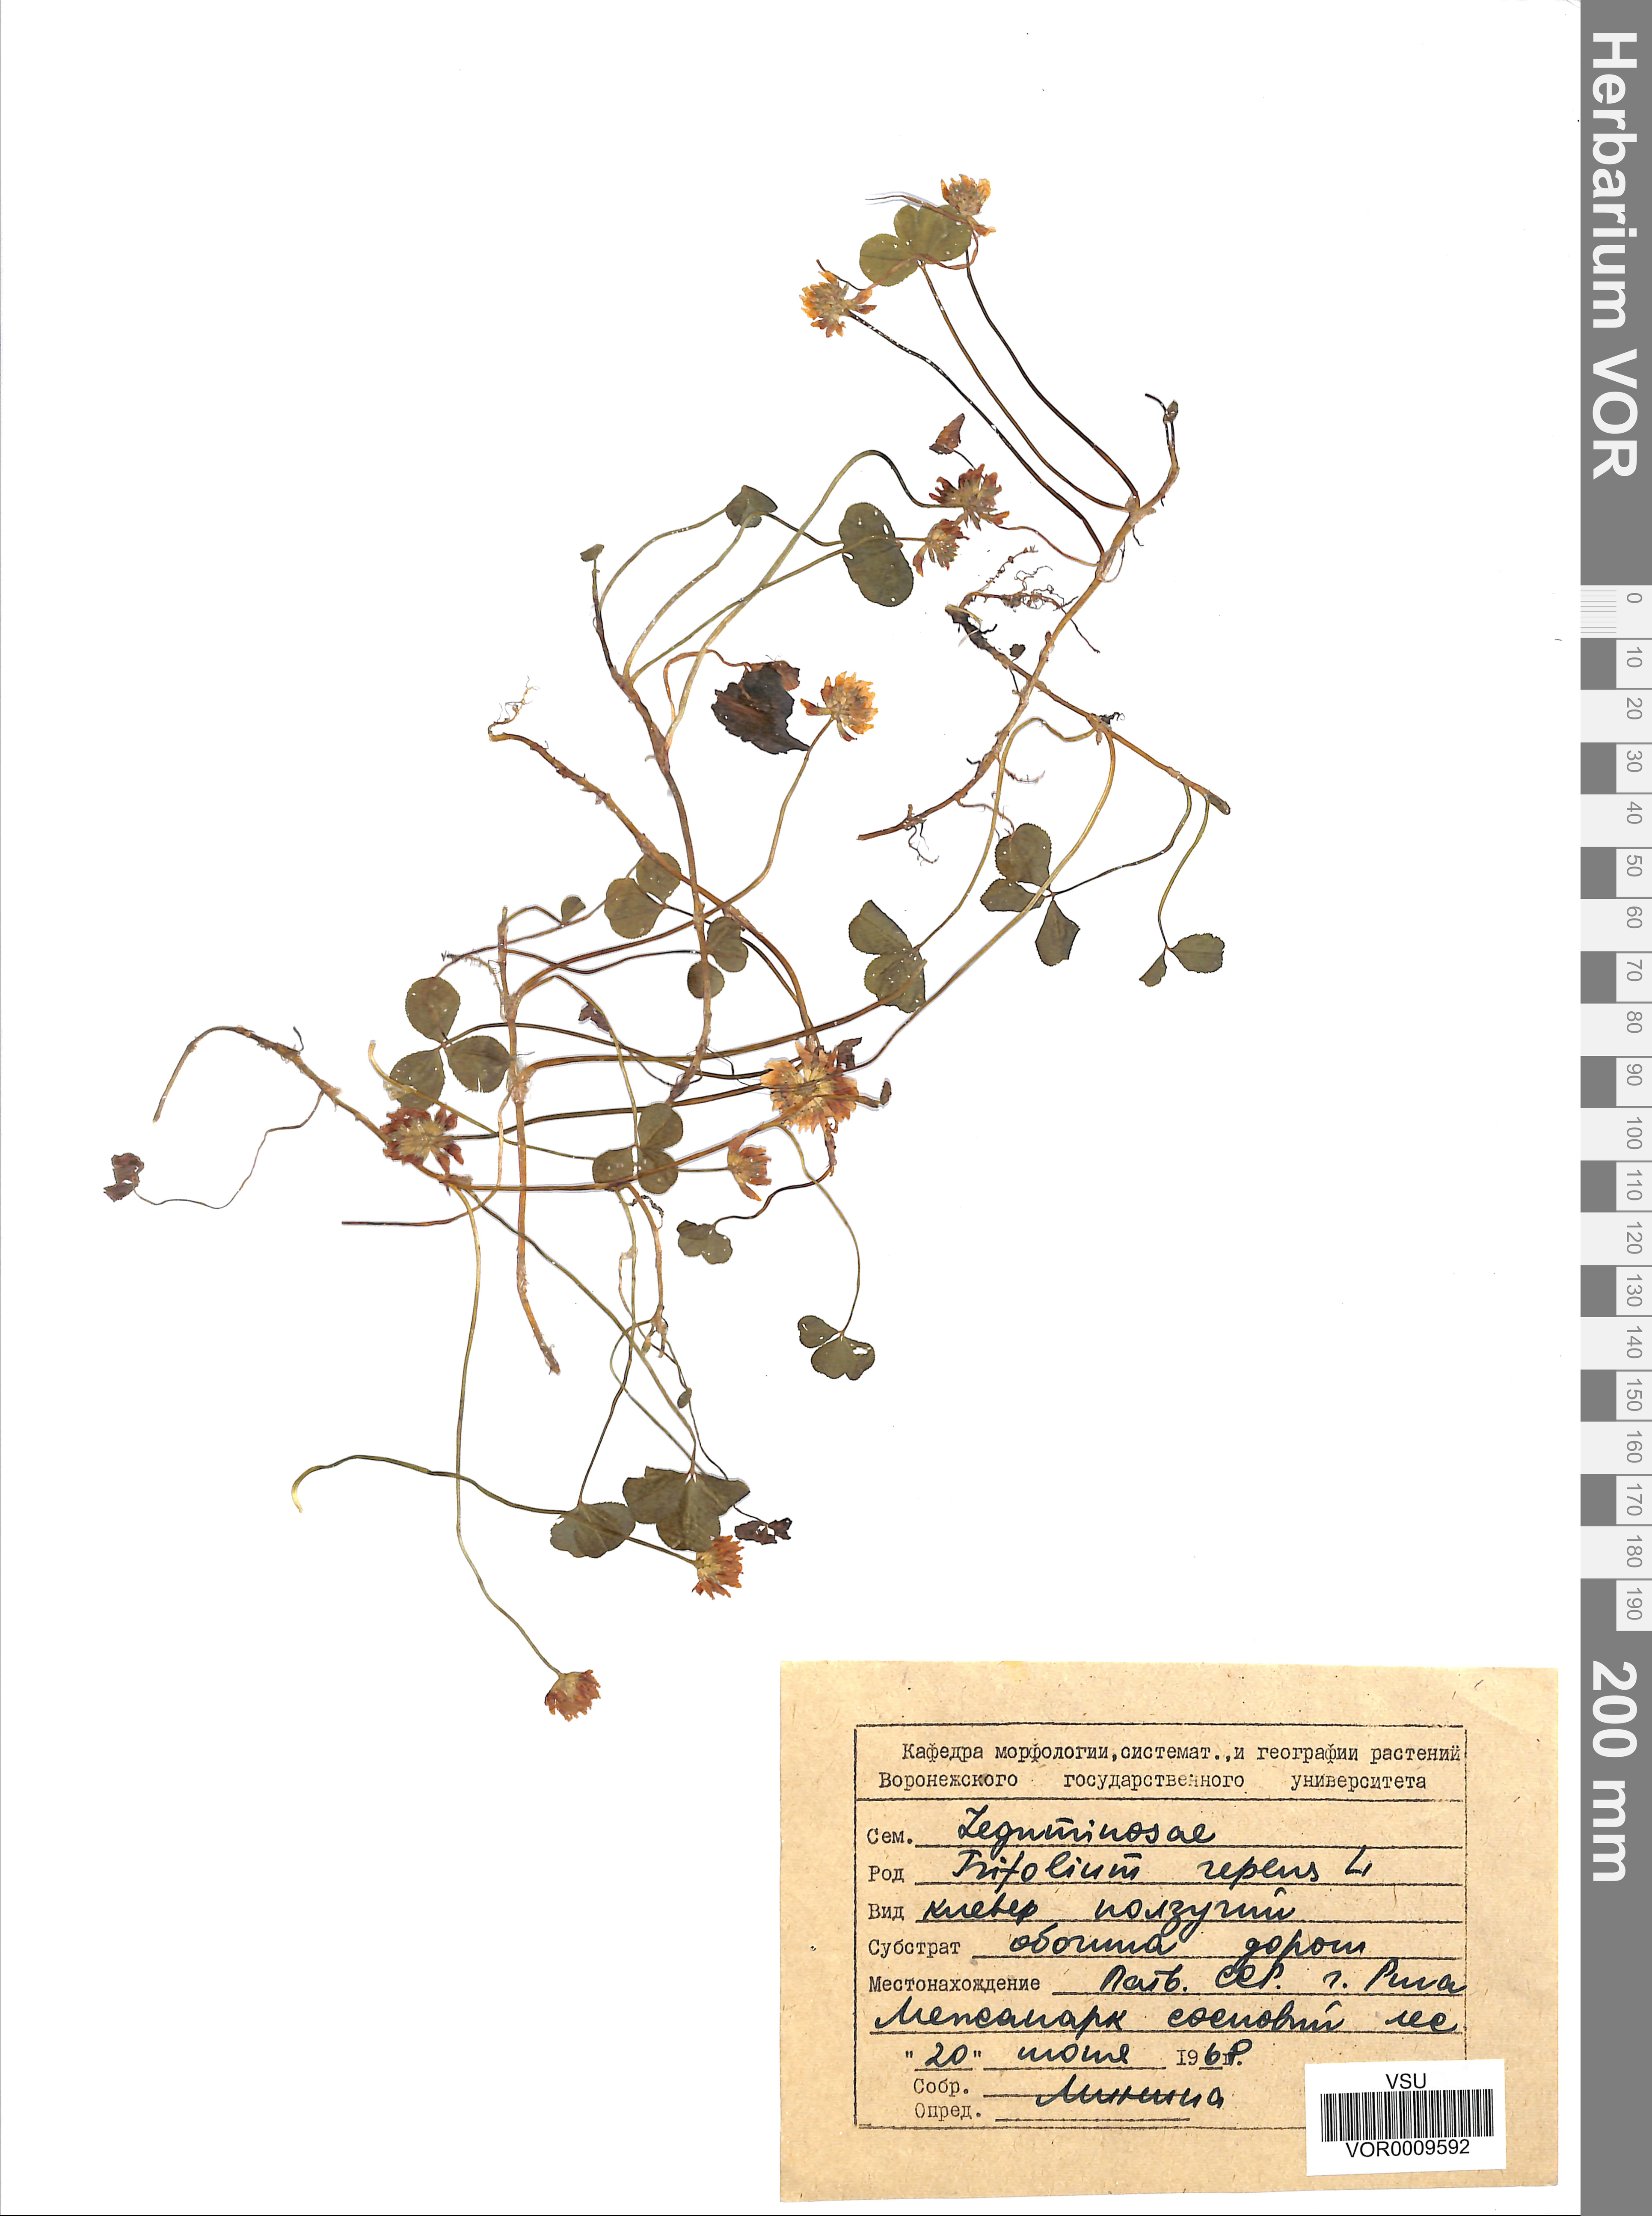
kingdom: Plantae
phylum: Tracheophyta
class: Magnoliopsida
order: Fabales
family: Fabaceae
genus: Trifolium
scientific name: Trifolium repens
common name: White clover
